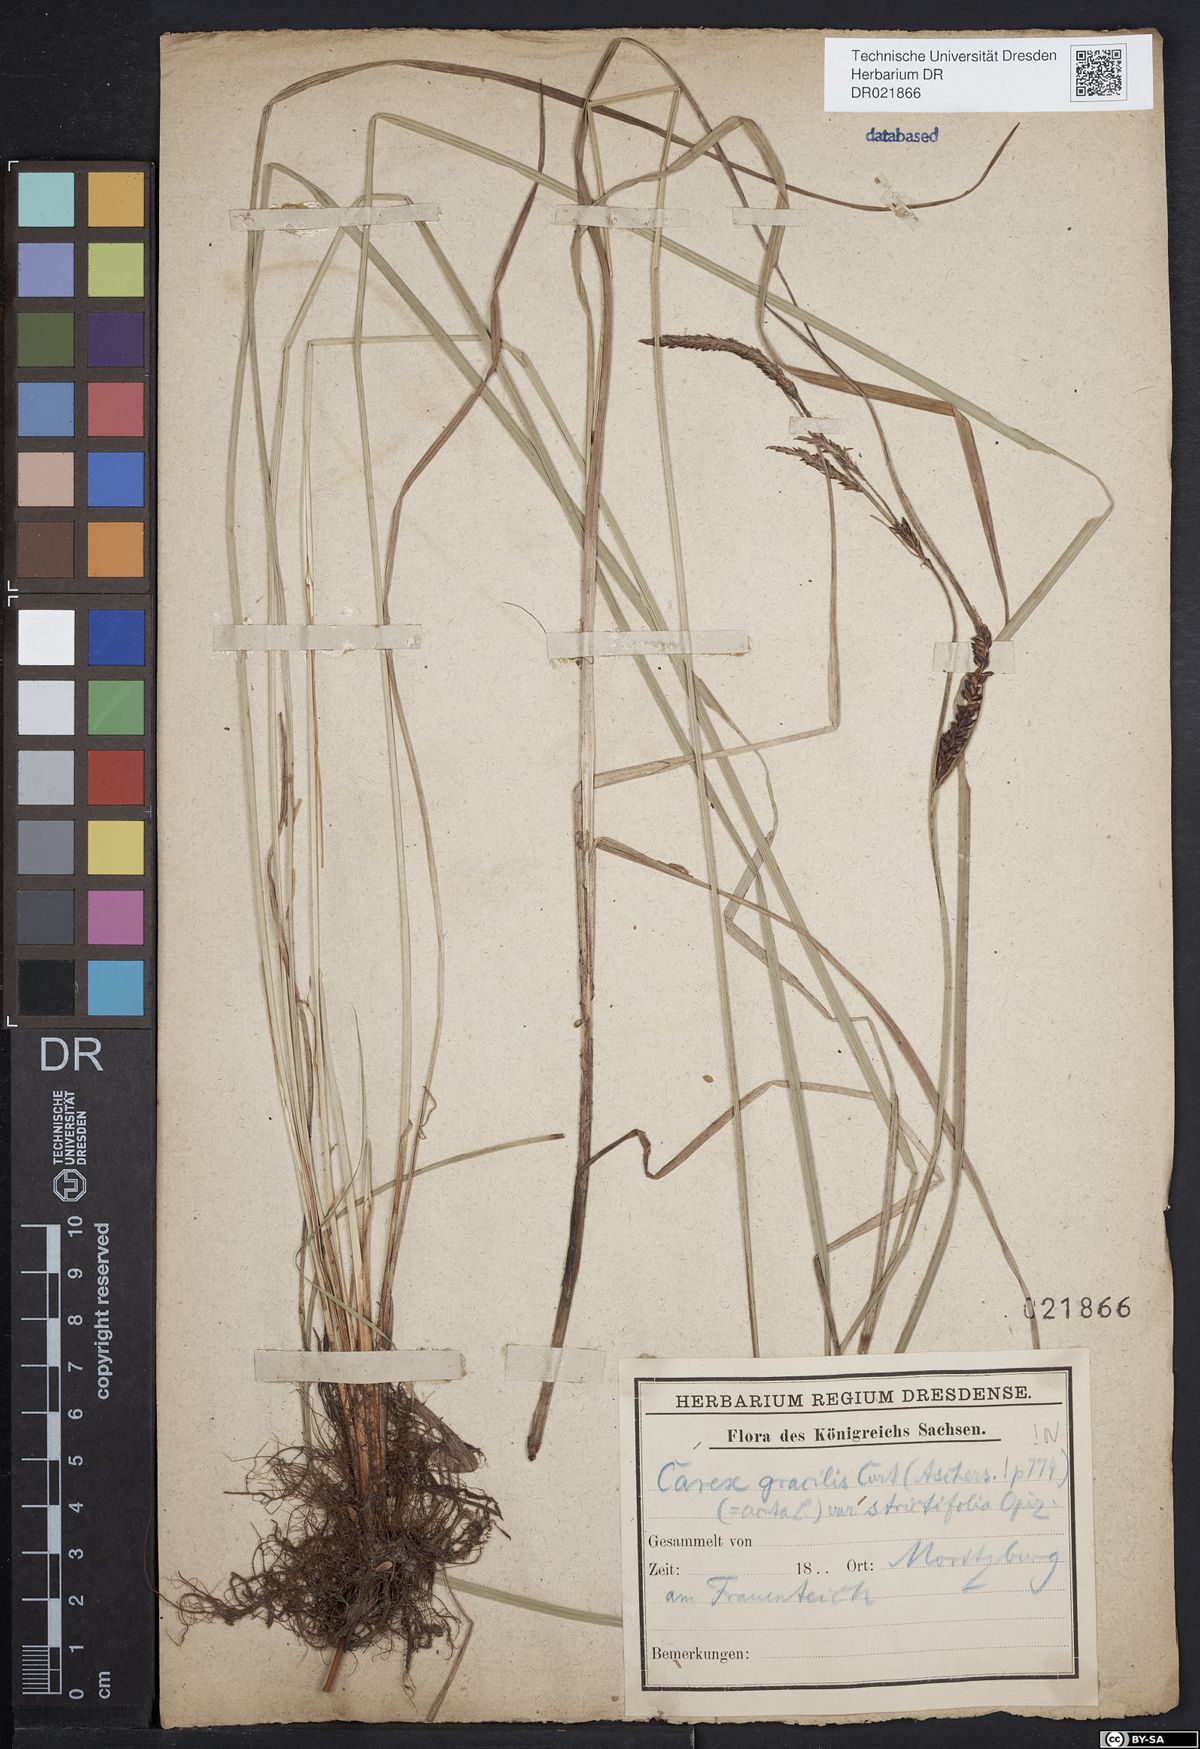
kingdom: Plantae
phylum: Tracheophyta
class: Liliopsida
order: Poales
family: Cyperaceae
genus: Carex
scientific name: Carex acuta
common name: Slender tufted-sedge
